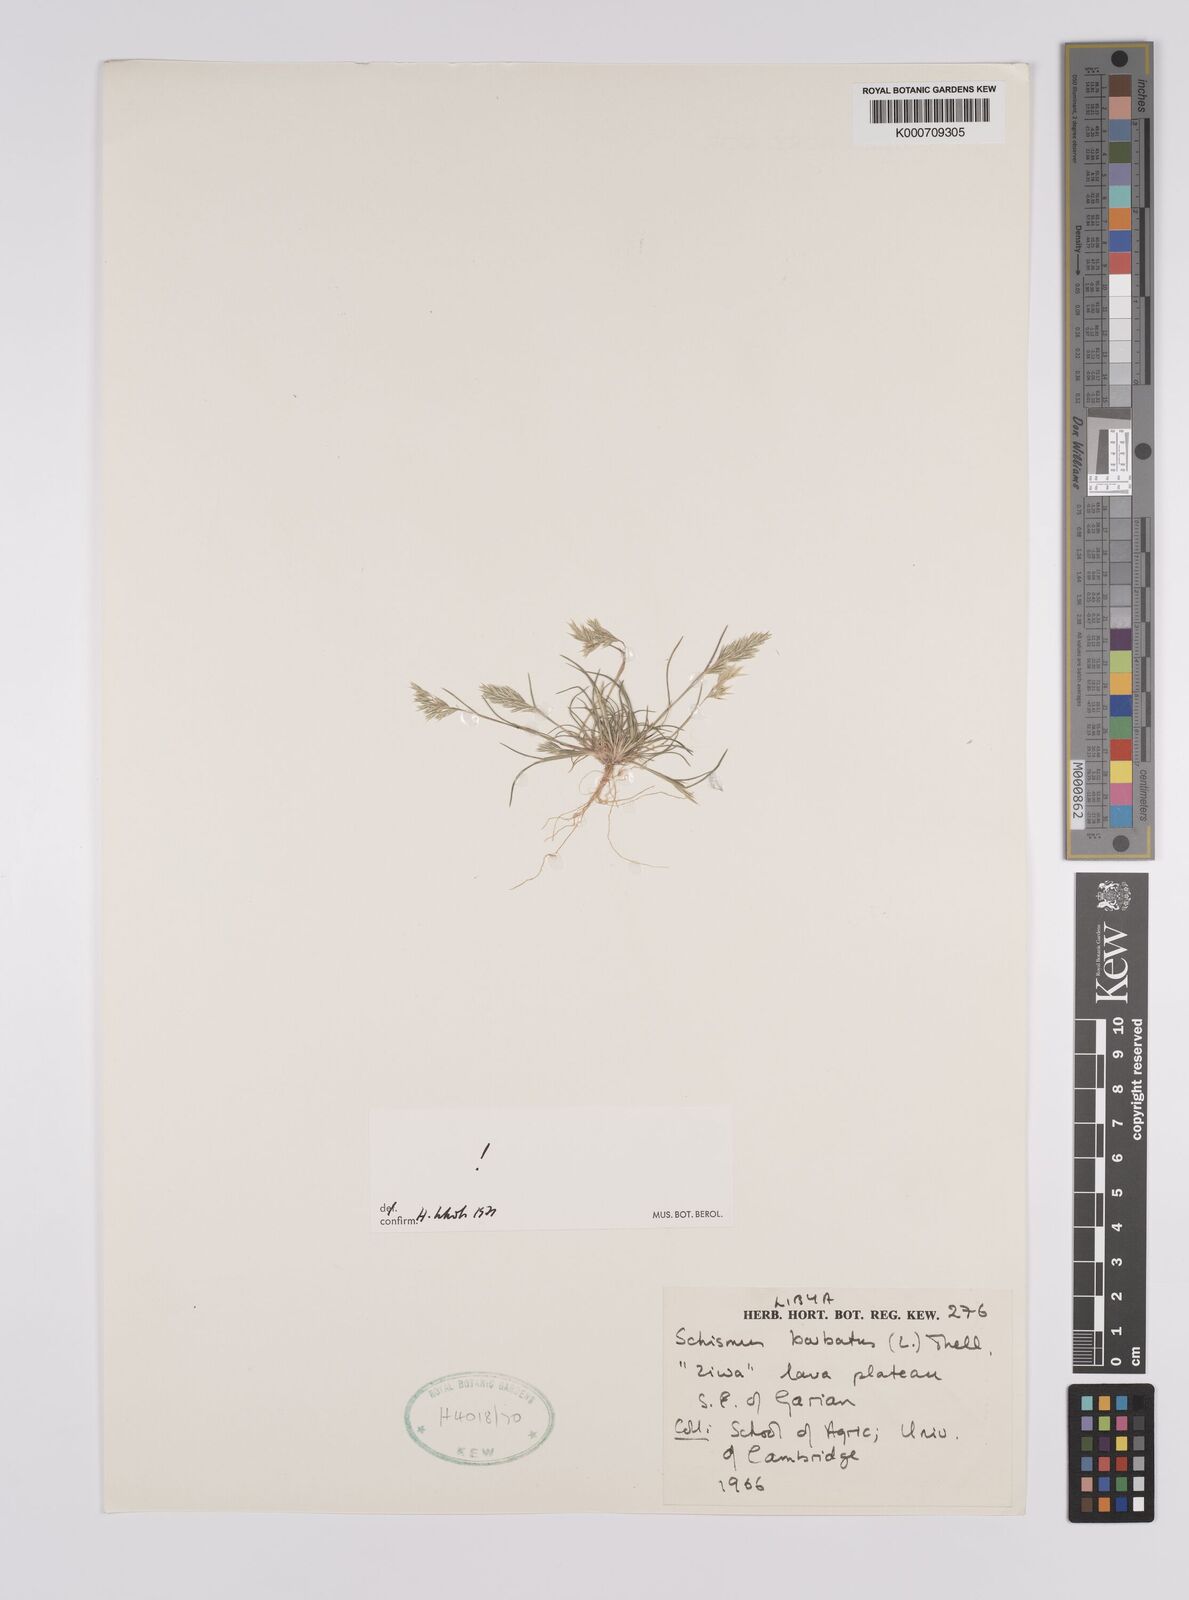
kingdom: Plantae
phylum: Tracheophyta
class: Liliopsida
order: Poales
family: Poaceae
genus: Schismus
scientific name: Schismus barbatus
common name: Kelch-grass
